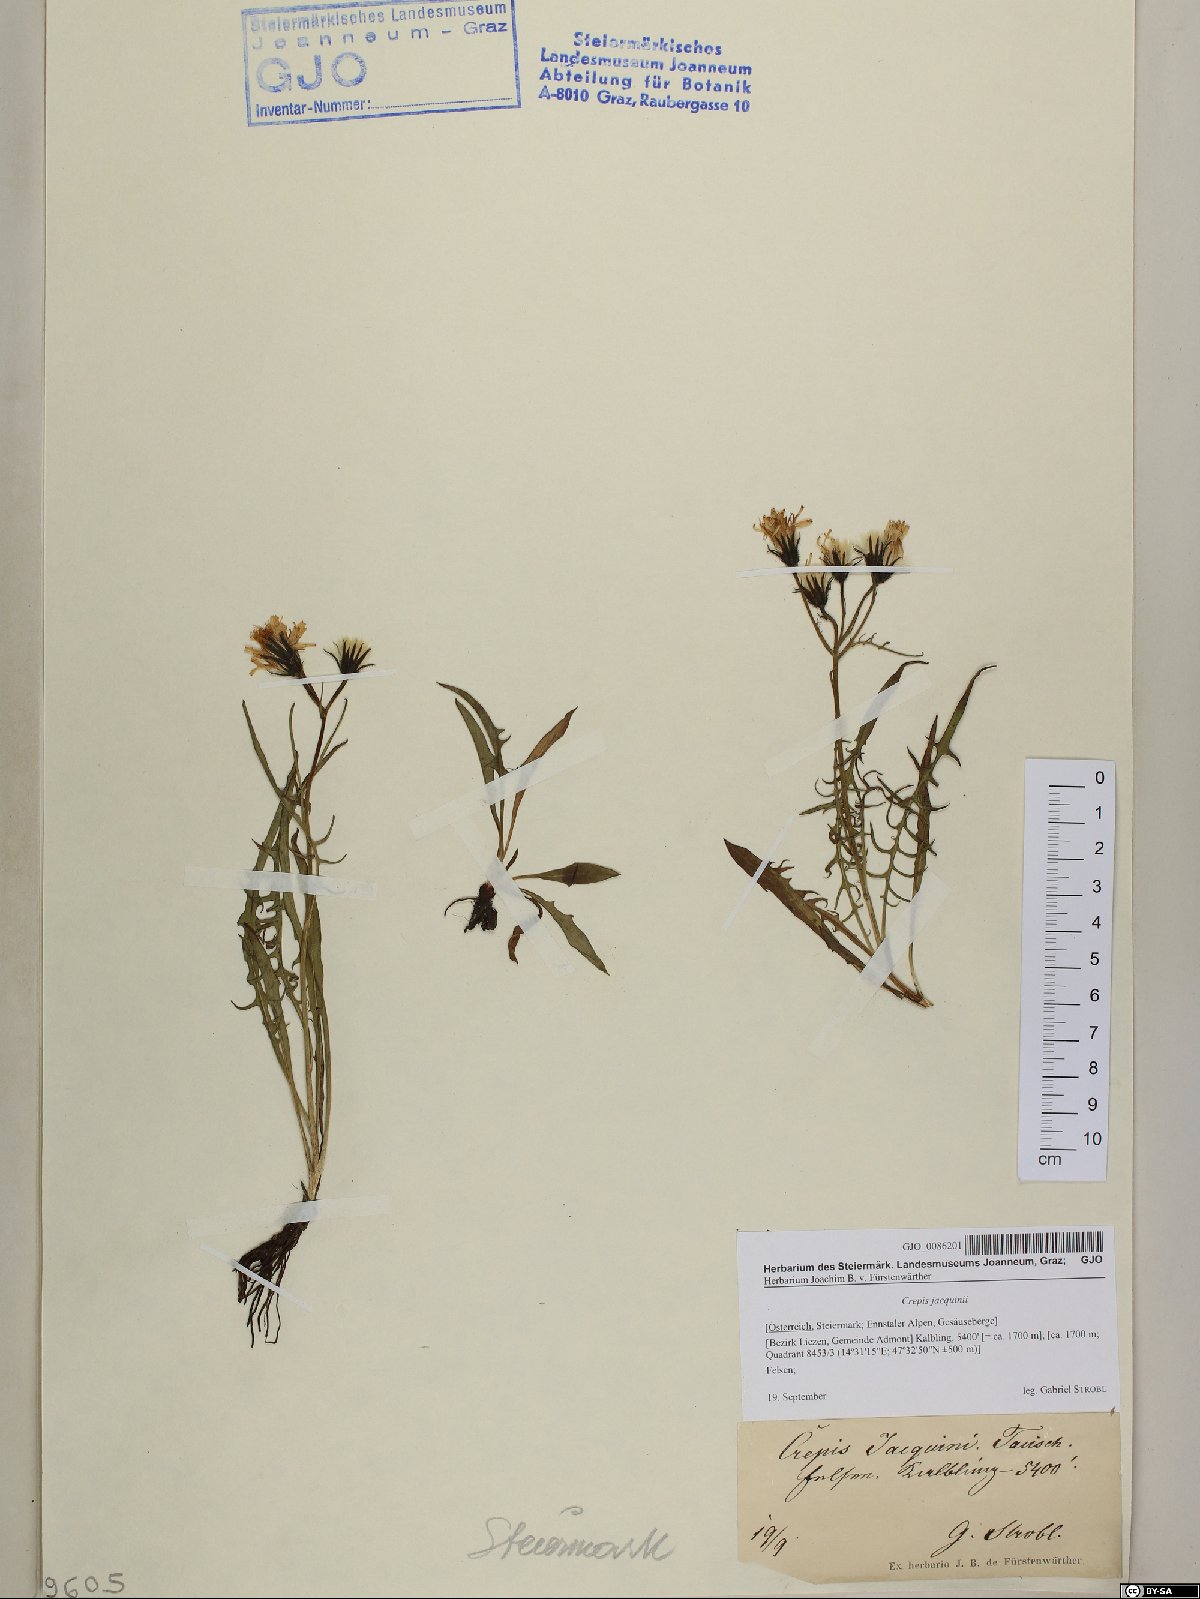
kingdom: Plantae
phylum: Tracheophyta
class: Magnoliopsida
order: Asterales
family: Asteraceae
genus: Crepis
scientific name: Crepis jacquinii
